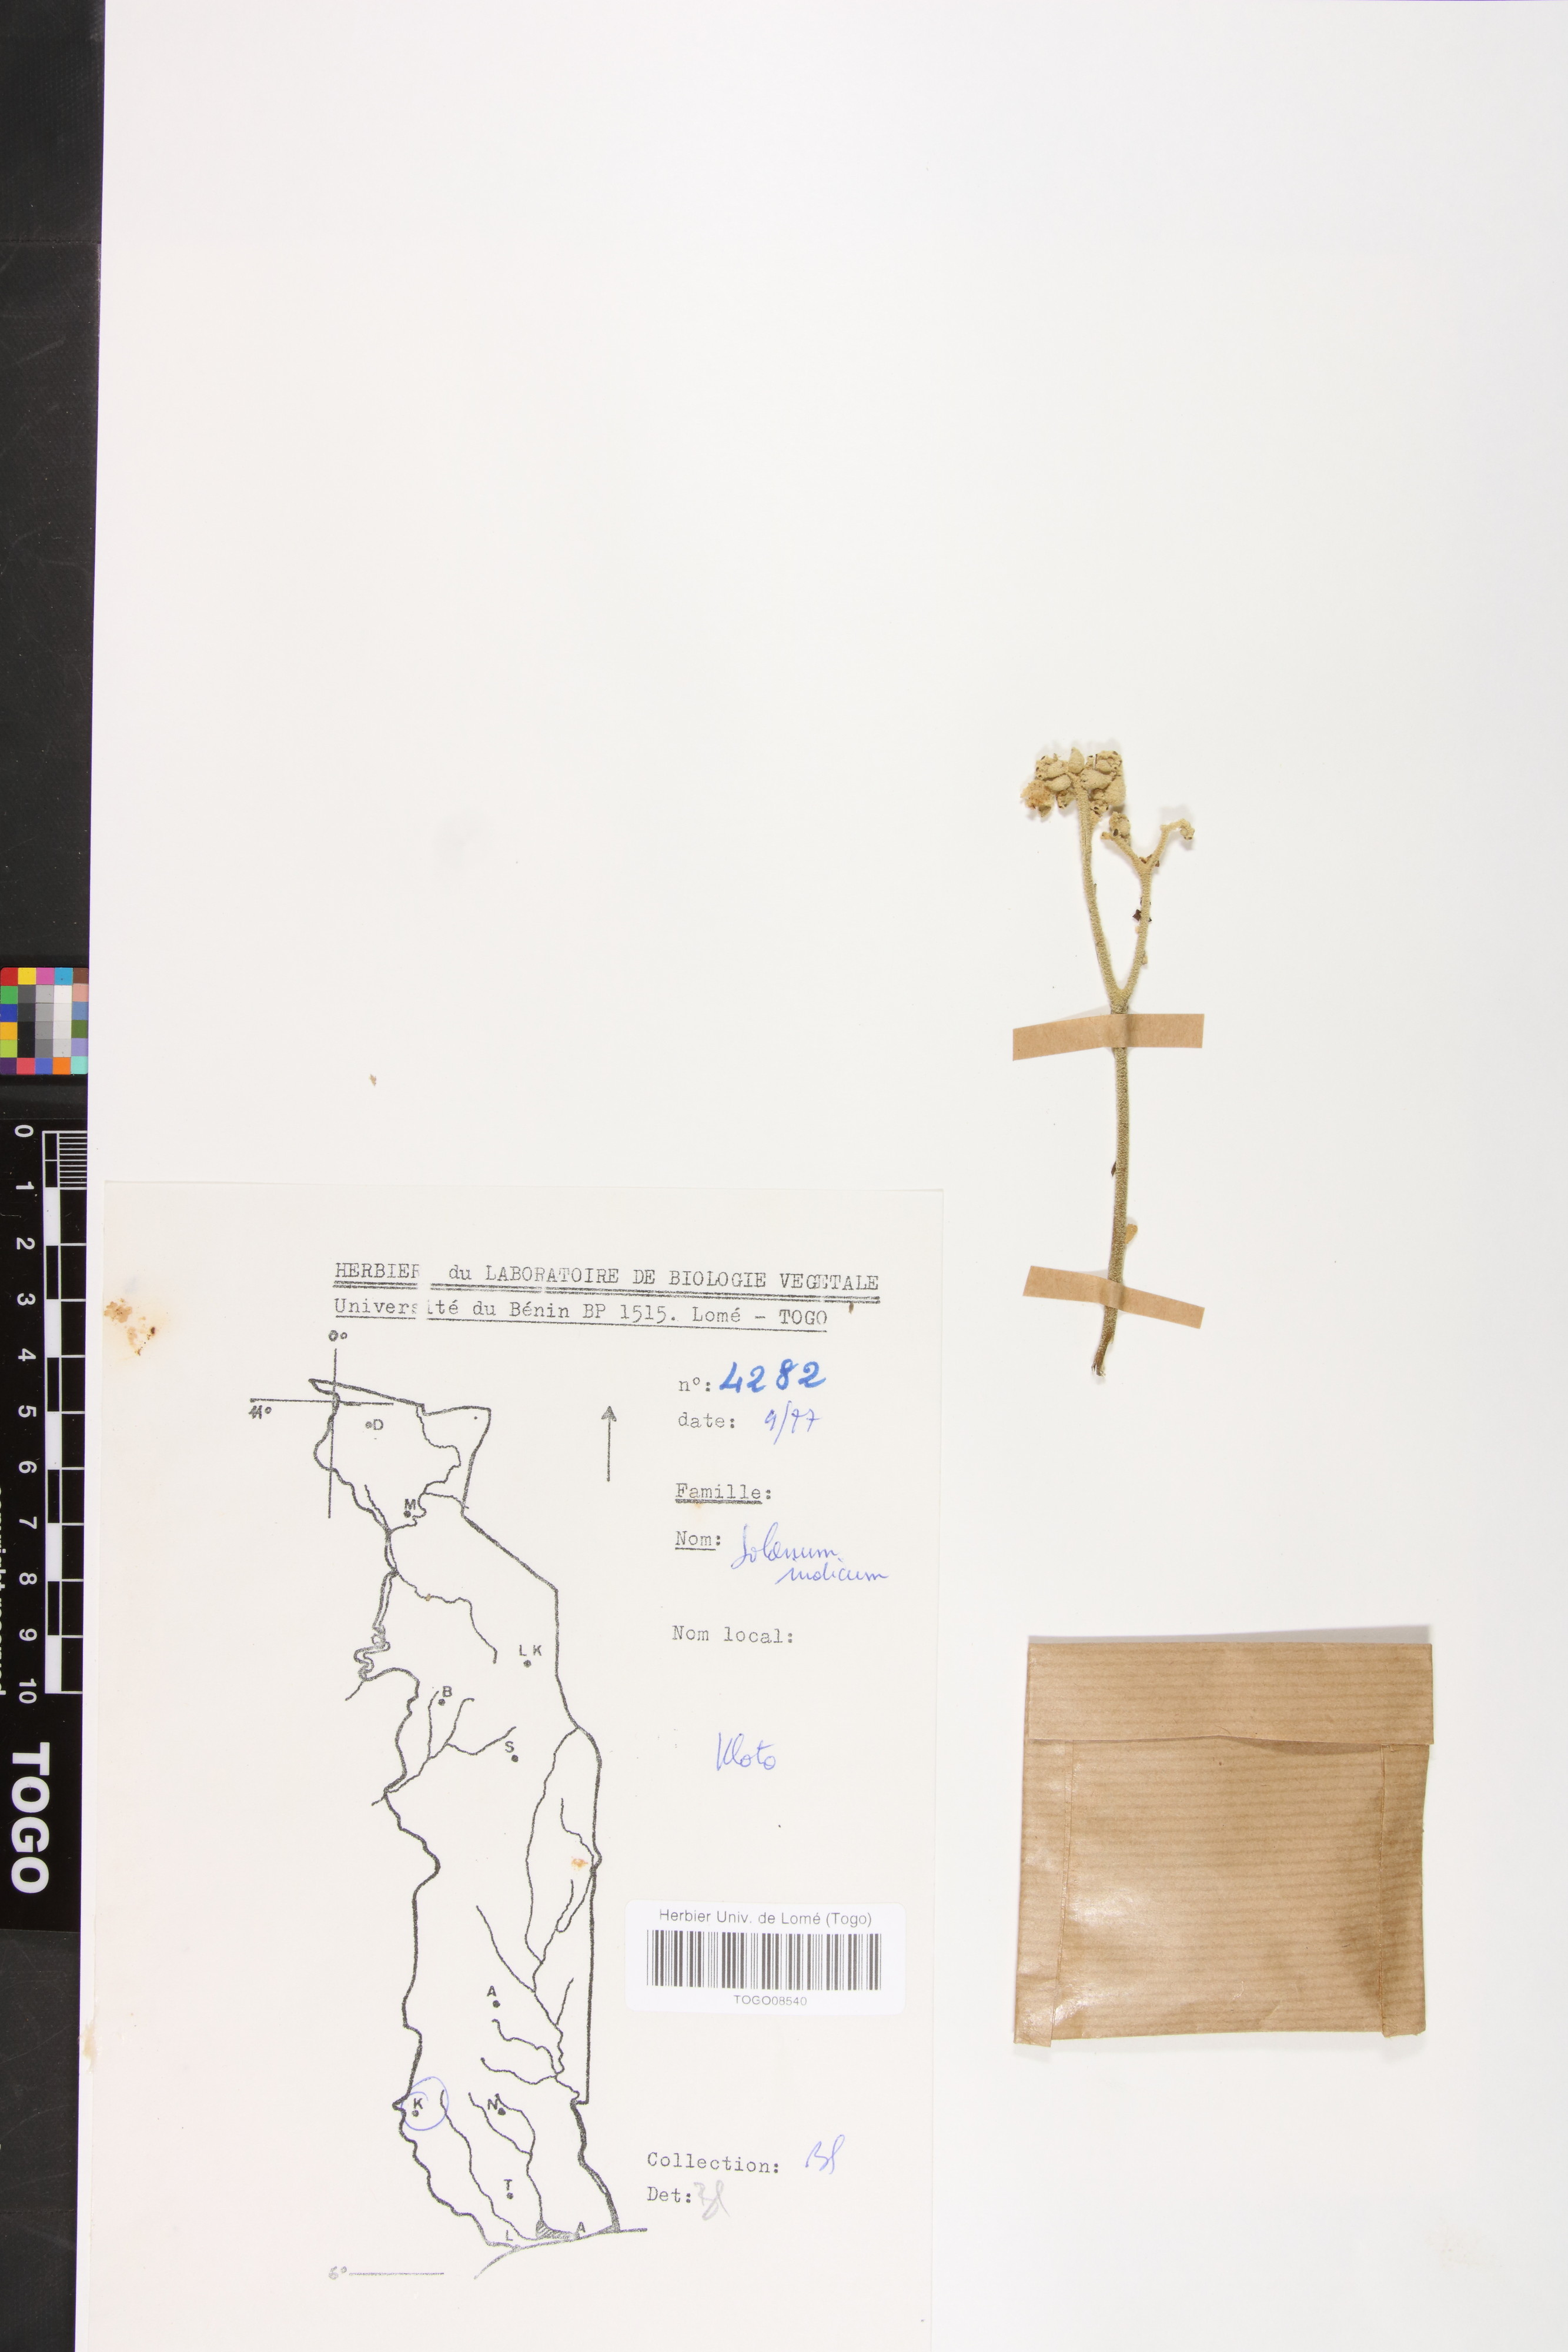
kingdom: Plantae
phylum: Tracheophyta
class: Magnoliopsida
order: Solanales
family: Solanaceae
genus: Solanum
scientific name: Solanum incanum
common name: Bitter apple
